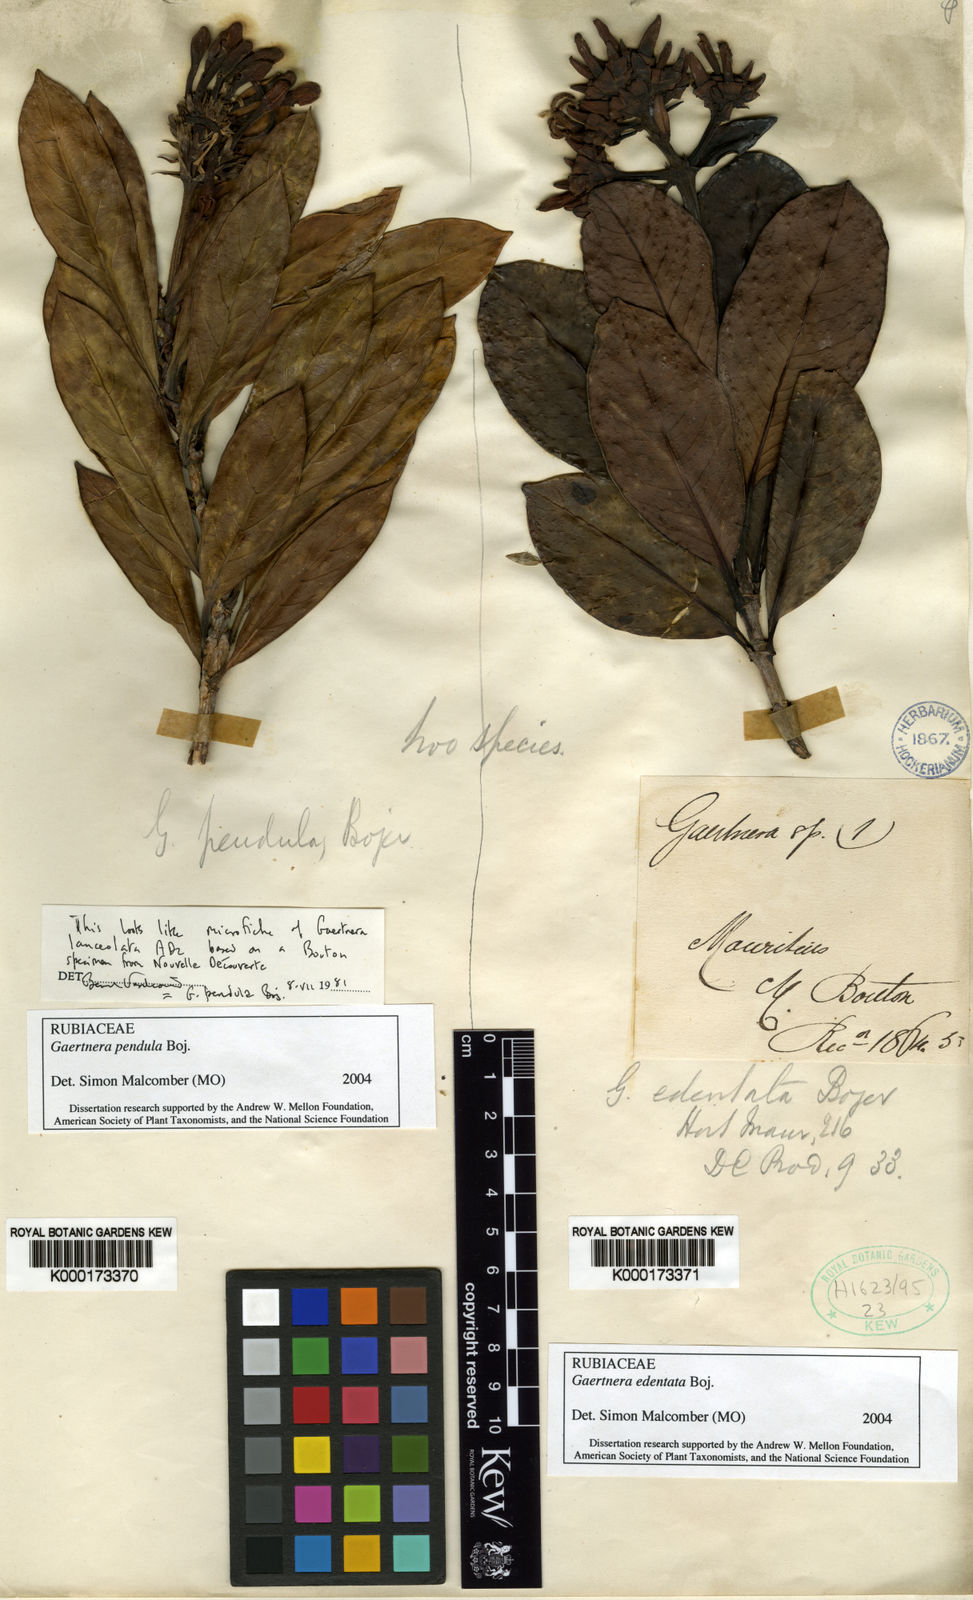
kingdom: Plantae
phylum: Tracheophyta
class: Magnoliopsida
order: Gentianales
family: Rubiaceae
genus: Gaertnera
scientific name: Gaertnera edentata
